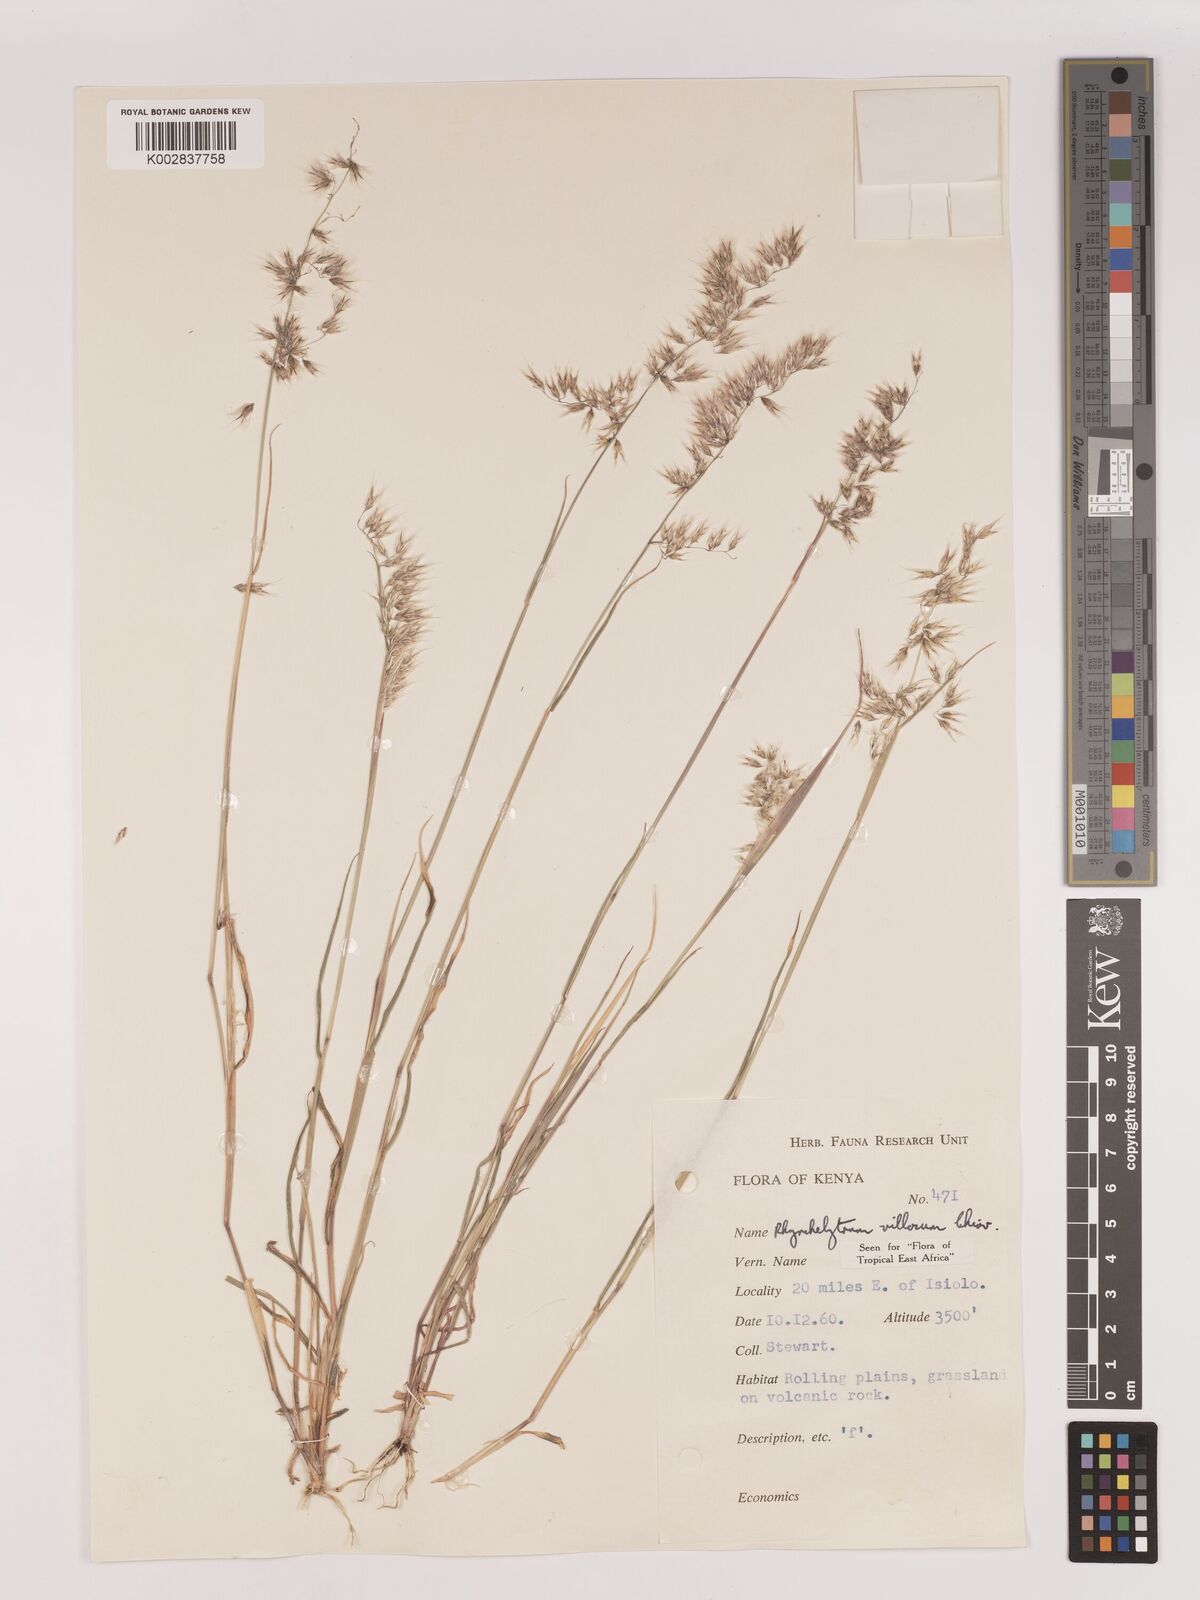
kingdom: Plantae
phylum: Tracheophyta
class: Liliopsida
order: Poales
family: Poaceae
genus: Melinis
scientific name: Melinis repens
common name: Rose natal grass
